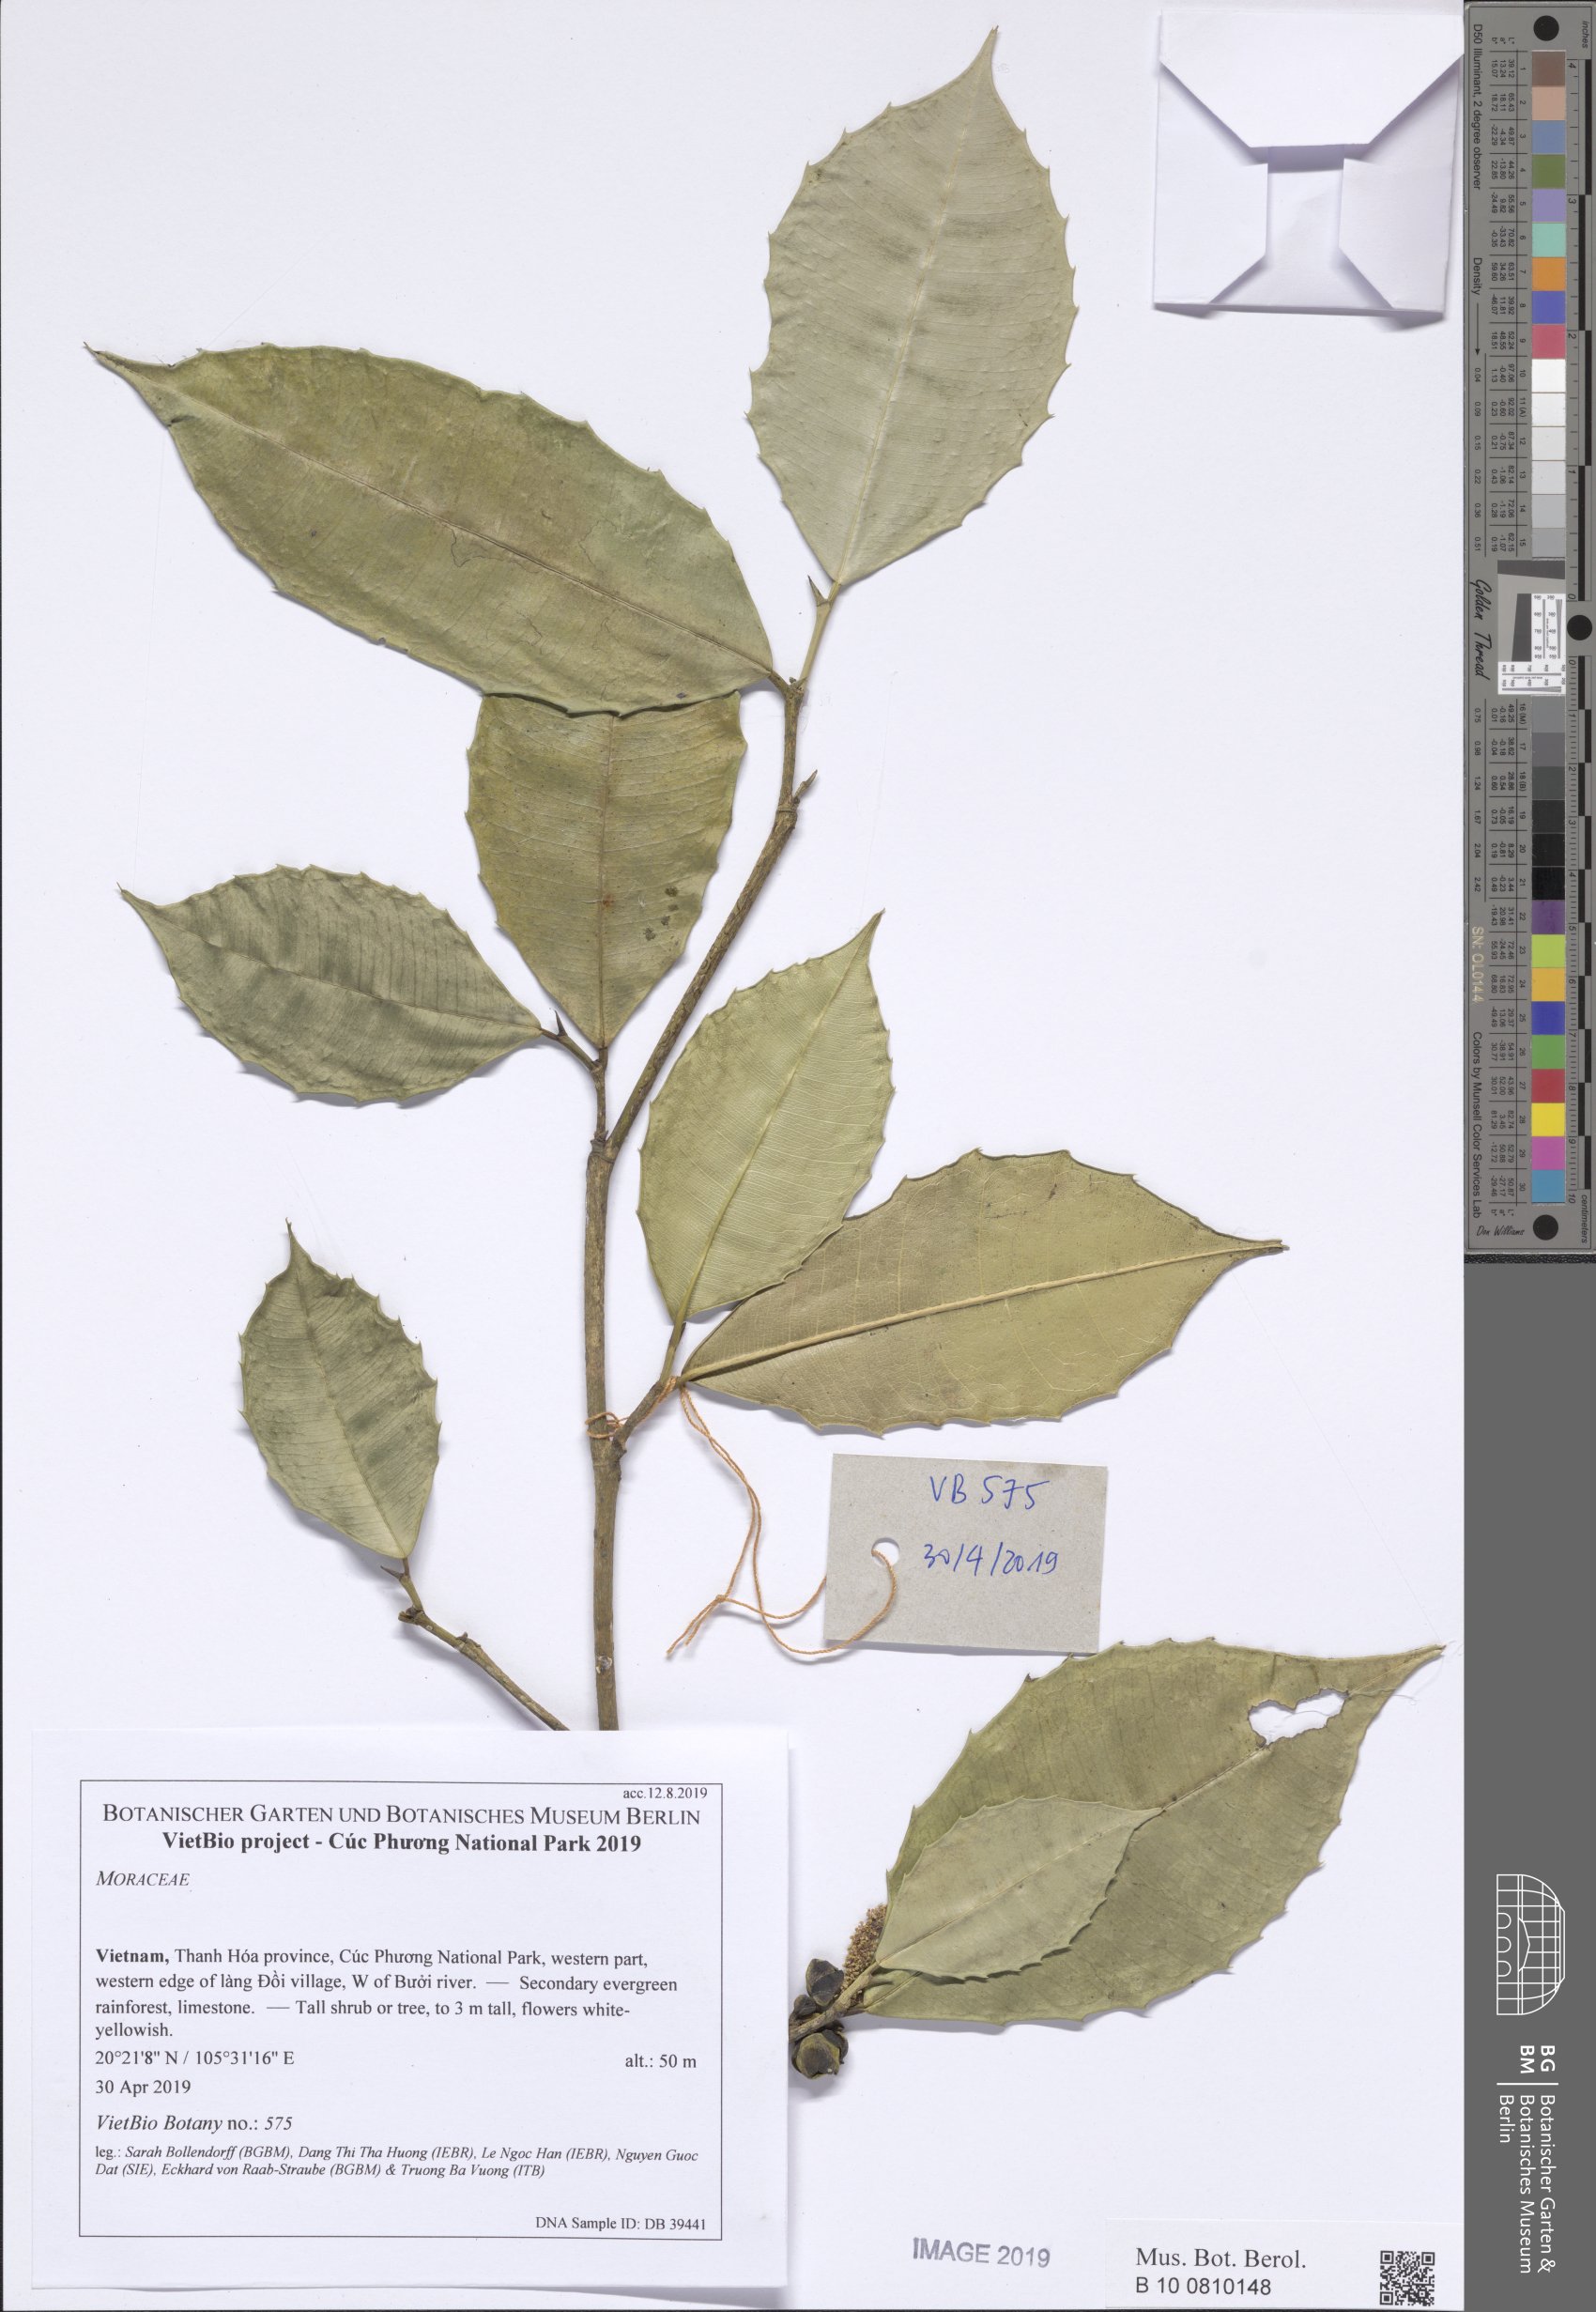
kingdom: Plantae
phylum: Tracheophyta
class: Magnoliopsida
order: Rosales
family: Moraceae
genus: Taxotrophis
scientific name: Taxotrophis ilicifolia
